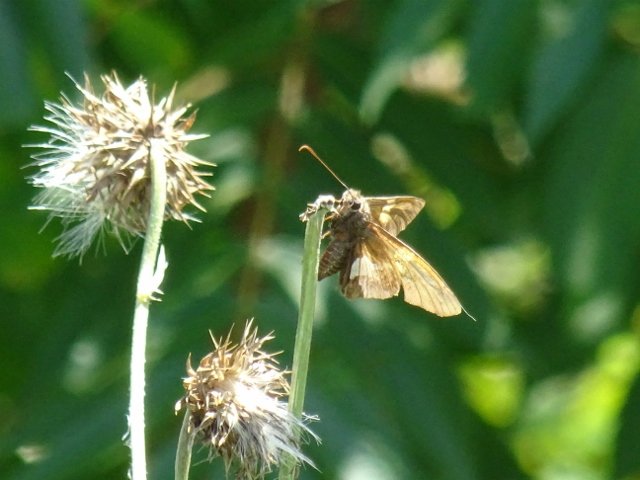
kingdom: Animalia
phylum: Arthropoda
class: Insecta
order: Lepidoptera
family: Hesperiidae
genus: Epargyreus
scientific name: Epargyreus clarus
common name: Silver-spotted Skipper
